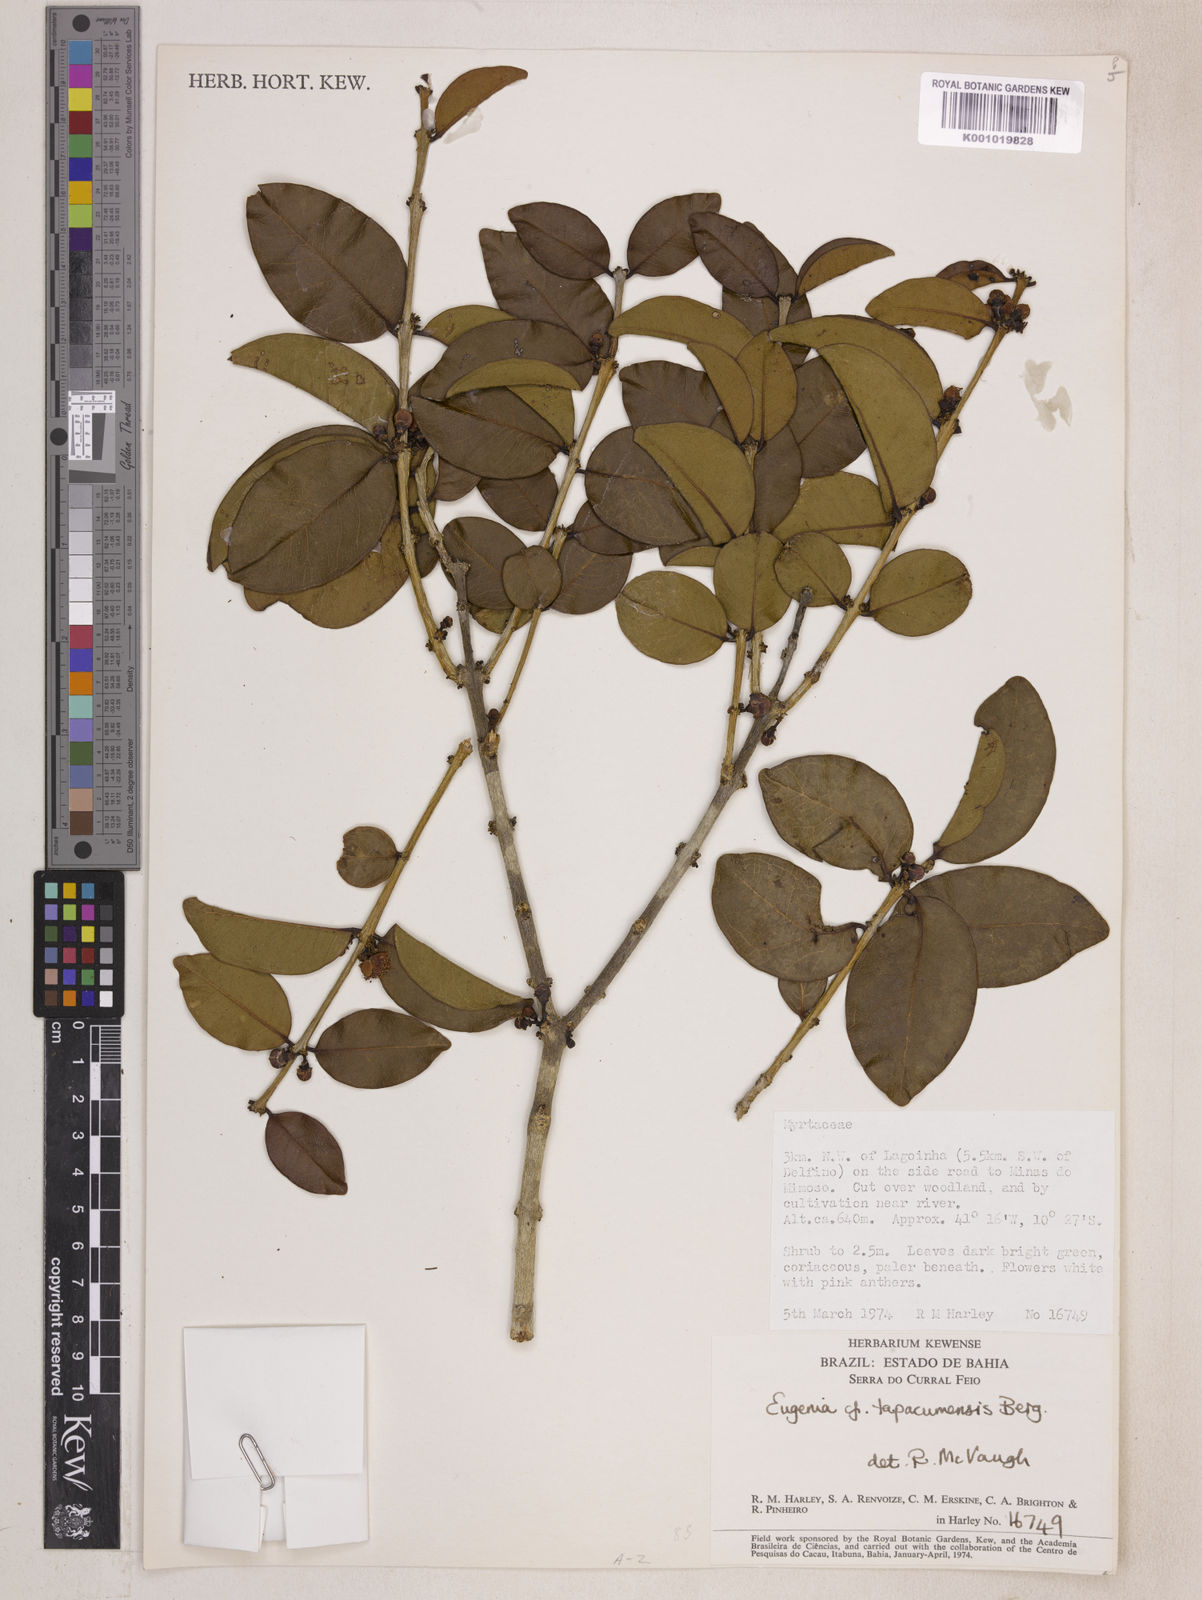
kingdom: Plantae
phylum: Tracheophyta
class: Magnoliopsida
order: Myrtales
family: Myrtaceae
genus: Eugenia
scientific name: Eugenia stictopetala
